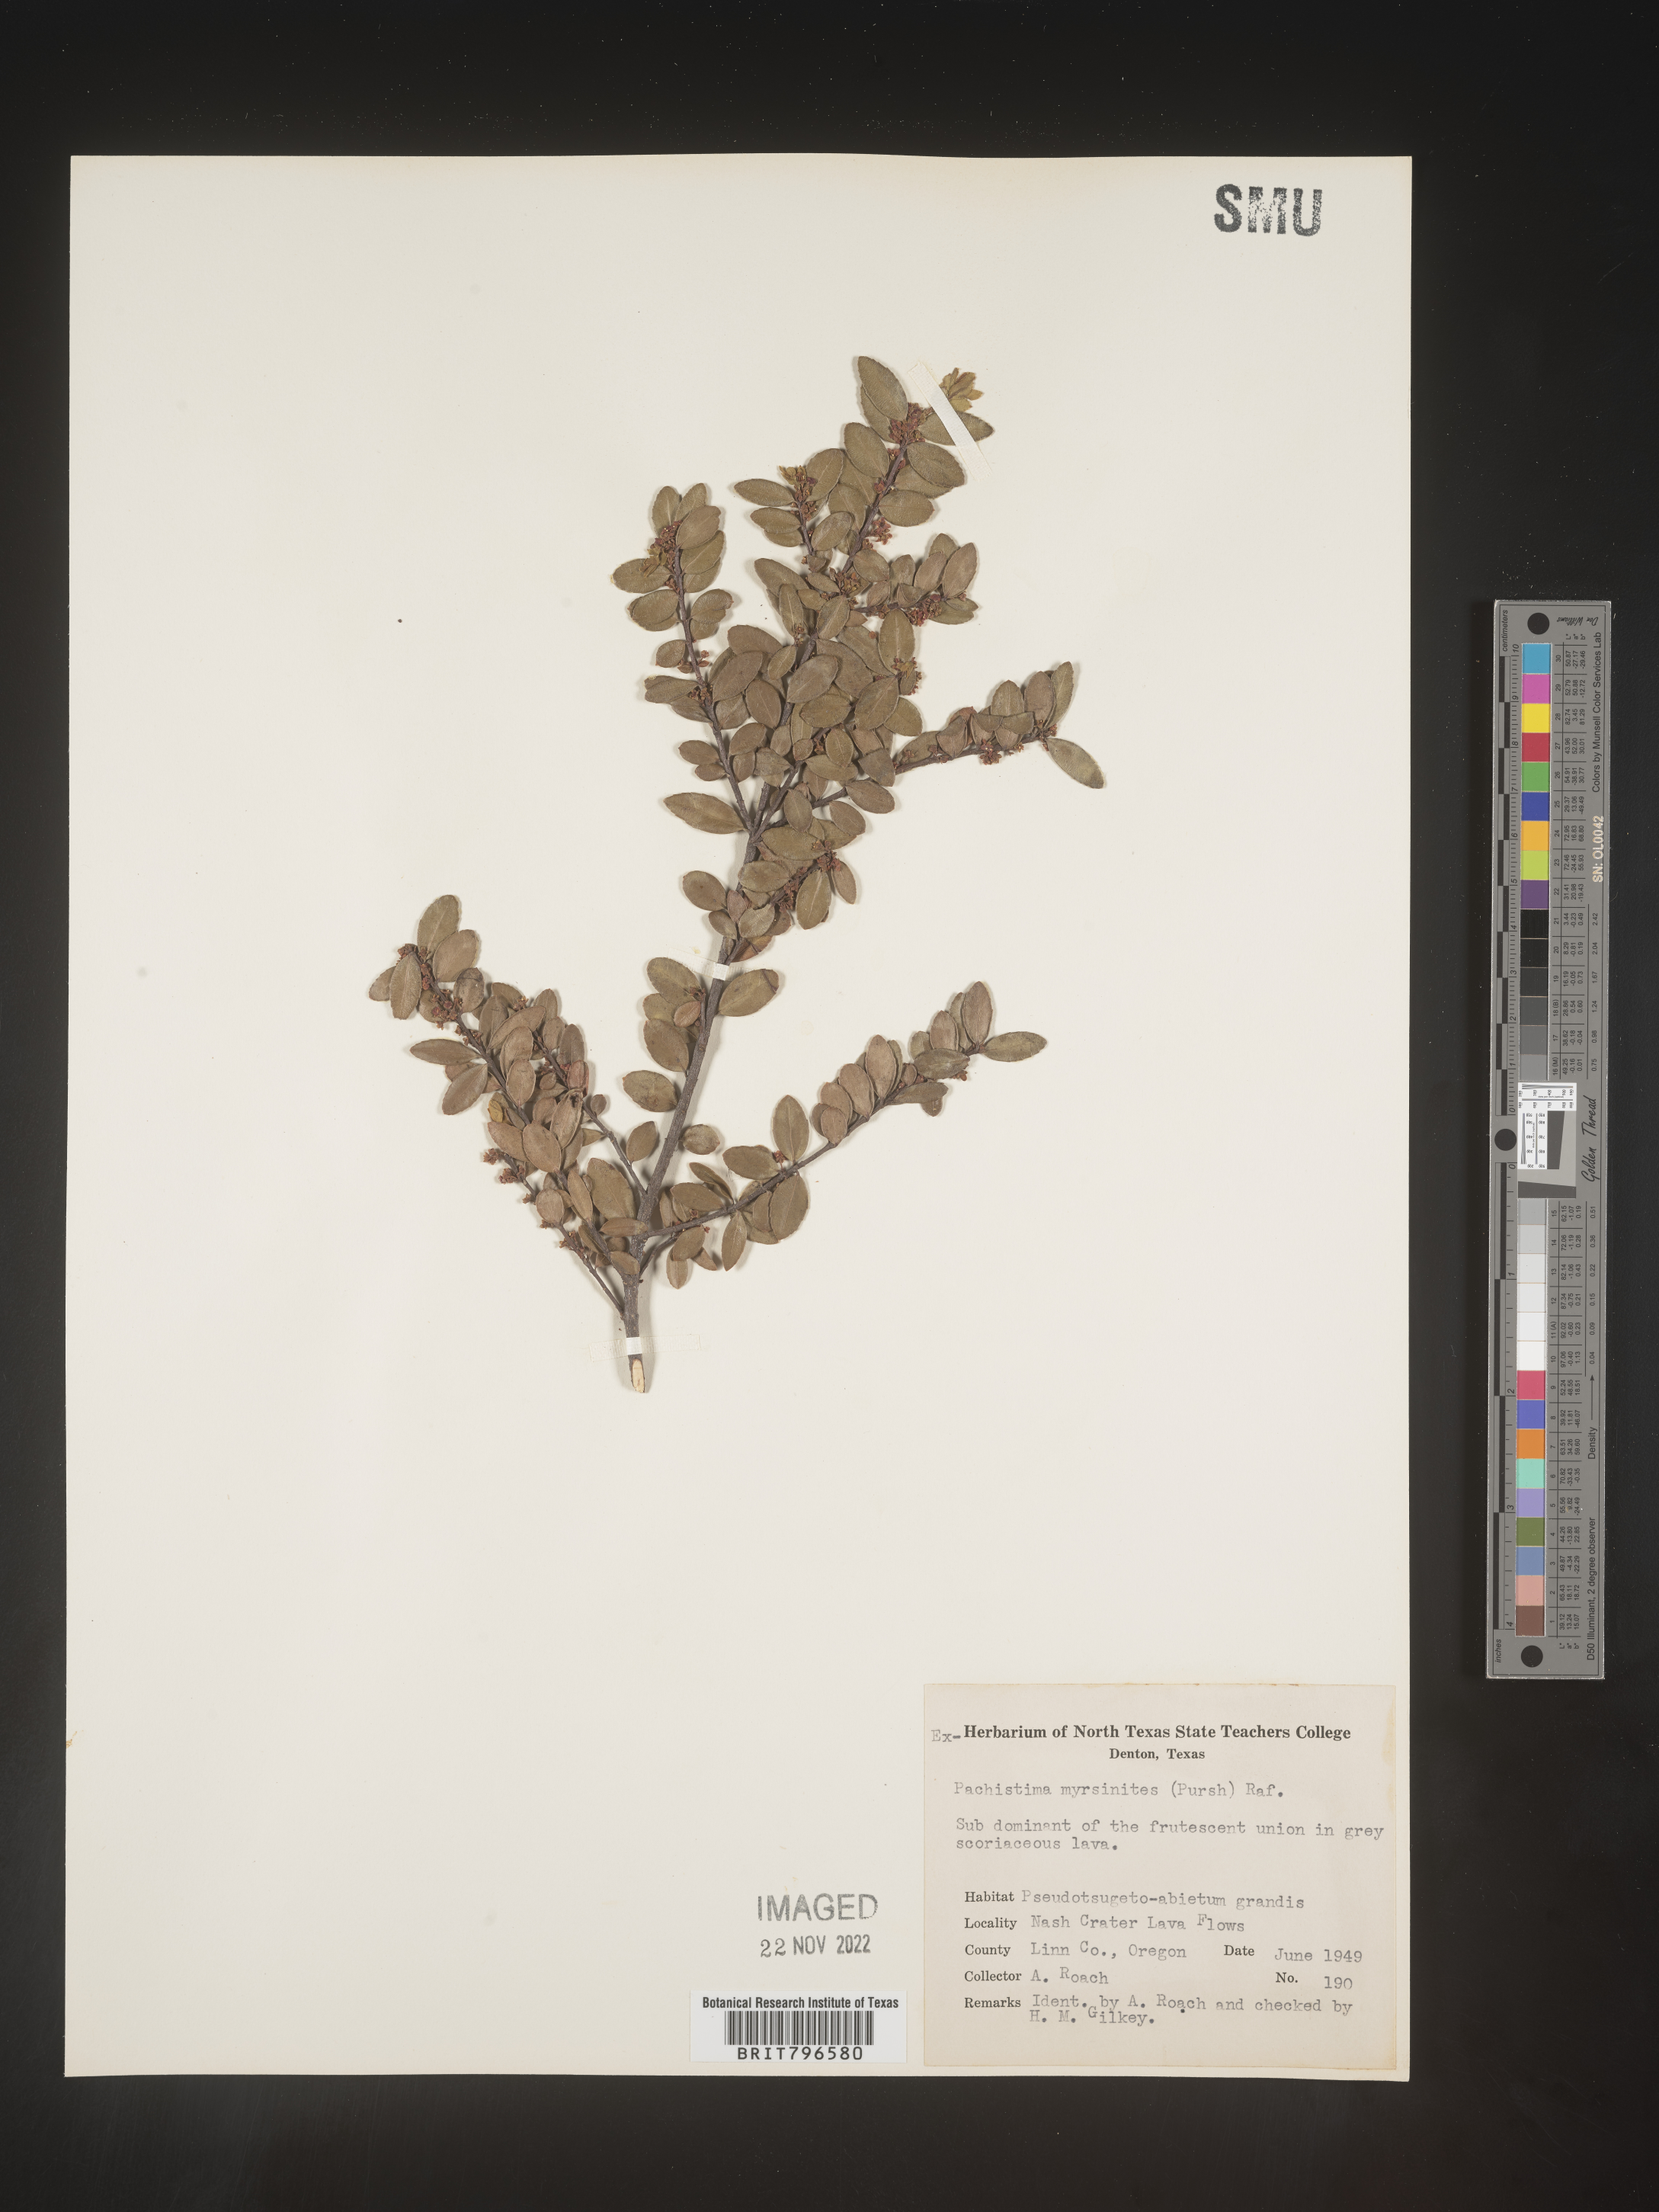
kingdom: Plantae
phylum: Tracheophyta
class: Magnoliopsida
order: Celastrales
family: Celastraceae
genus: Paxistima
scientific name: Paxistima myrsinites
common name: Mountain-lover
